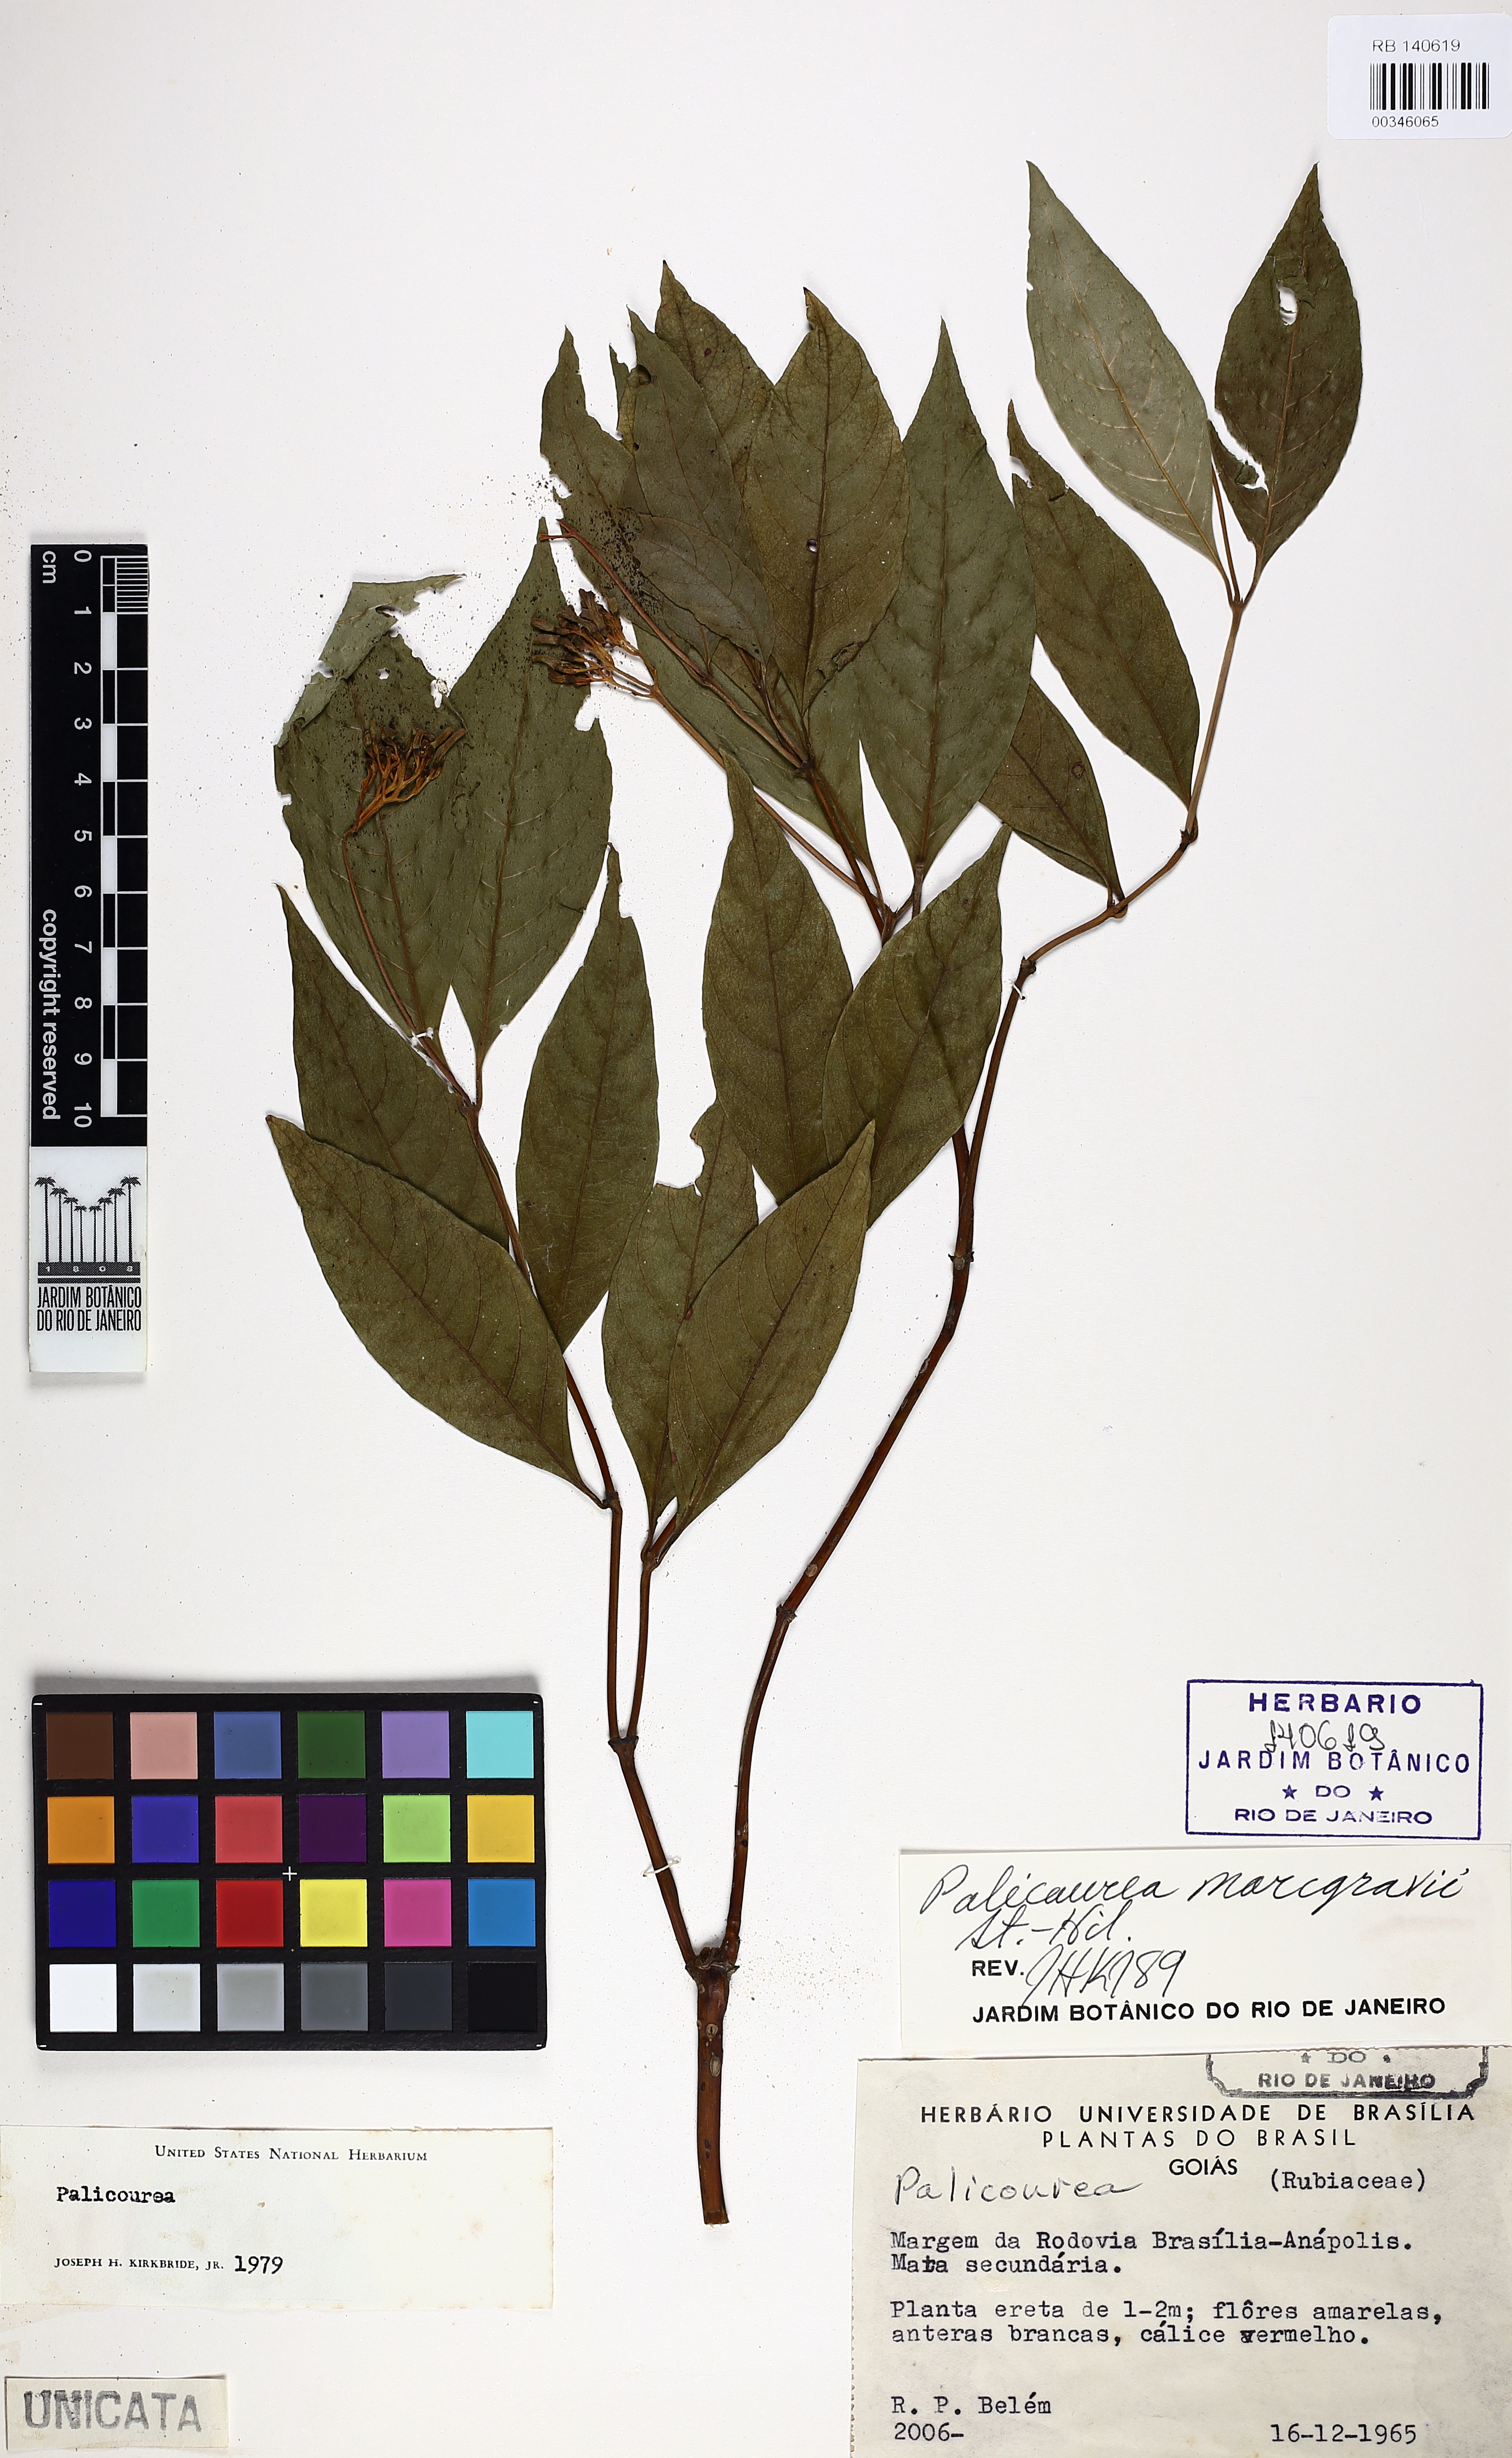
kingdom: Plantae
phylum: Tracheophyta
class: Magnoliopsida
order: Gentianales
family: Rubiaceae
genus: Palicourea
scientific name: Palicourea marcgravii
